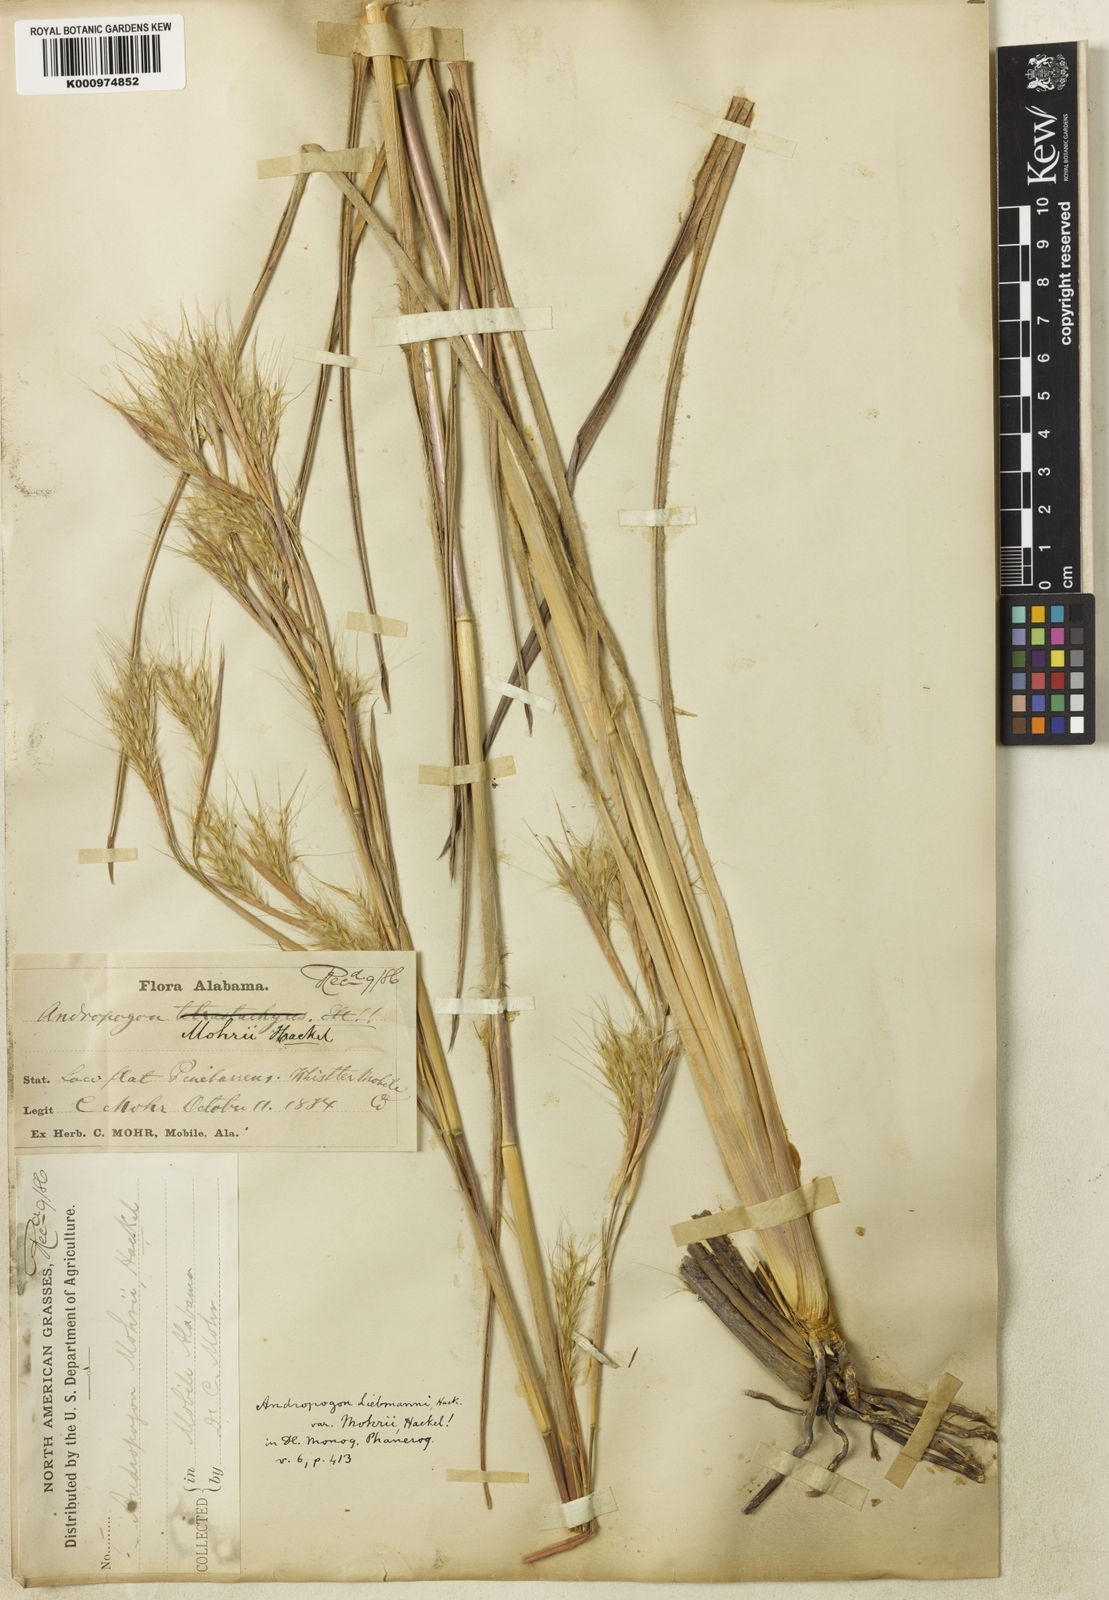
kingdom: Plantae
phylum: Tracheophyta
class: Liliopsida
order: Poales
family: Poaceae
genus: Andropogon
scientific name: Andropogon liebmannii
